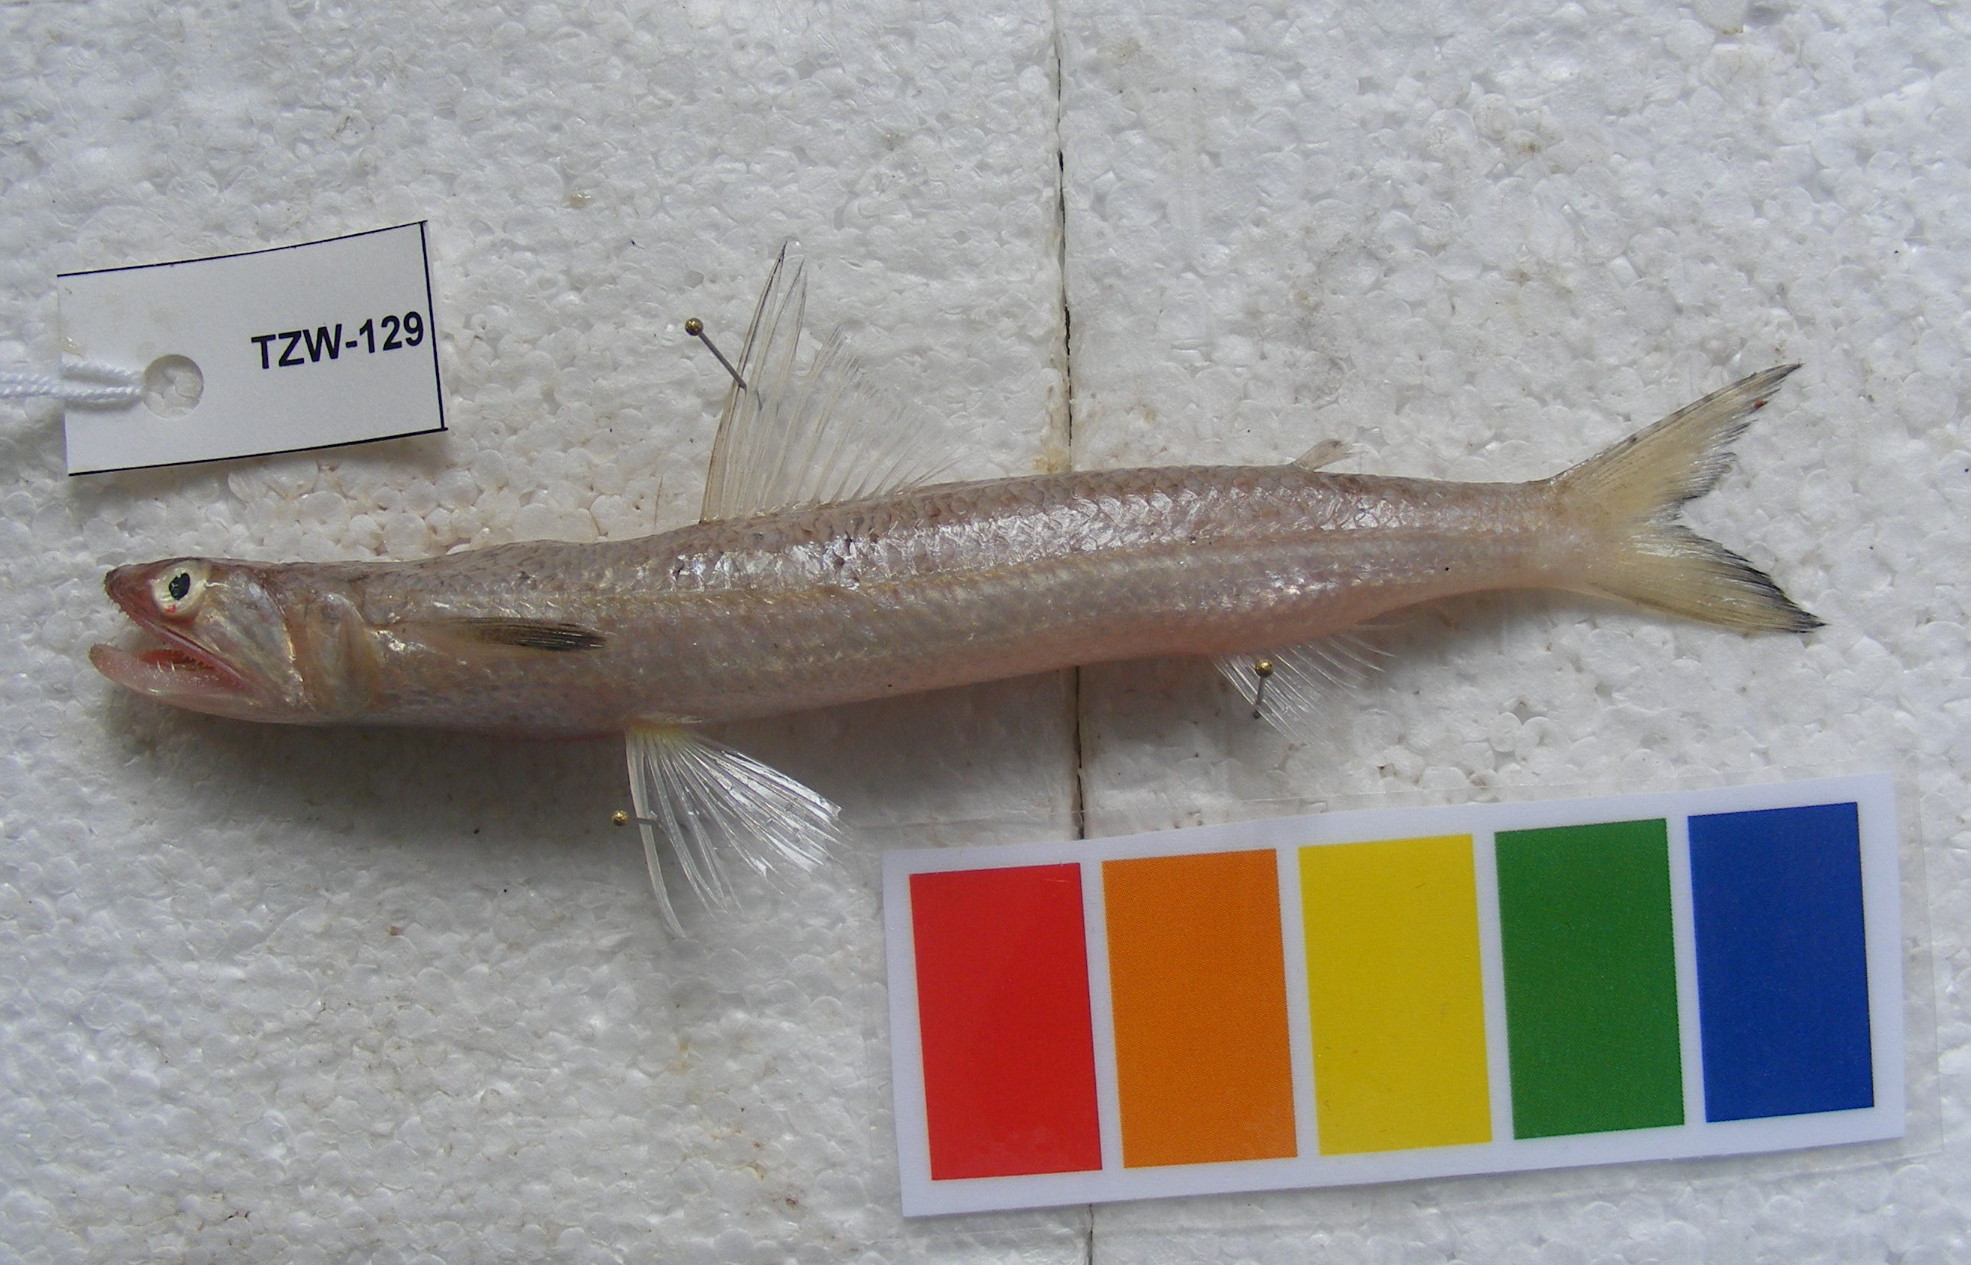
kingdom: Animalia
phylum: Chordata
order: Aulopiformes
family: Synodontidae
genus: Saurida
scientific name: Saurida
